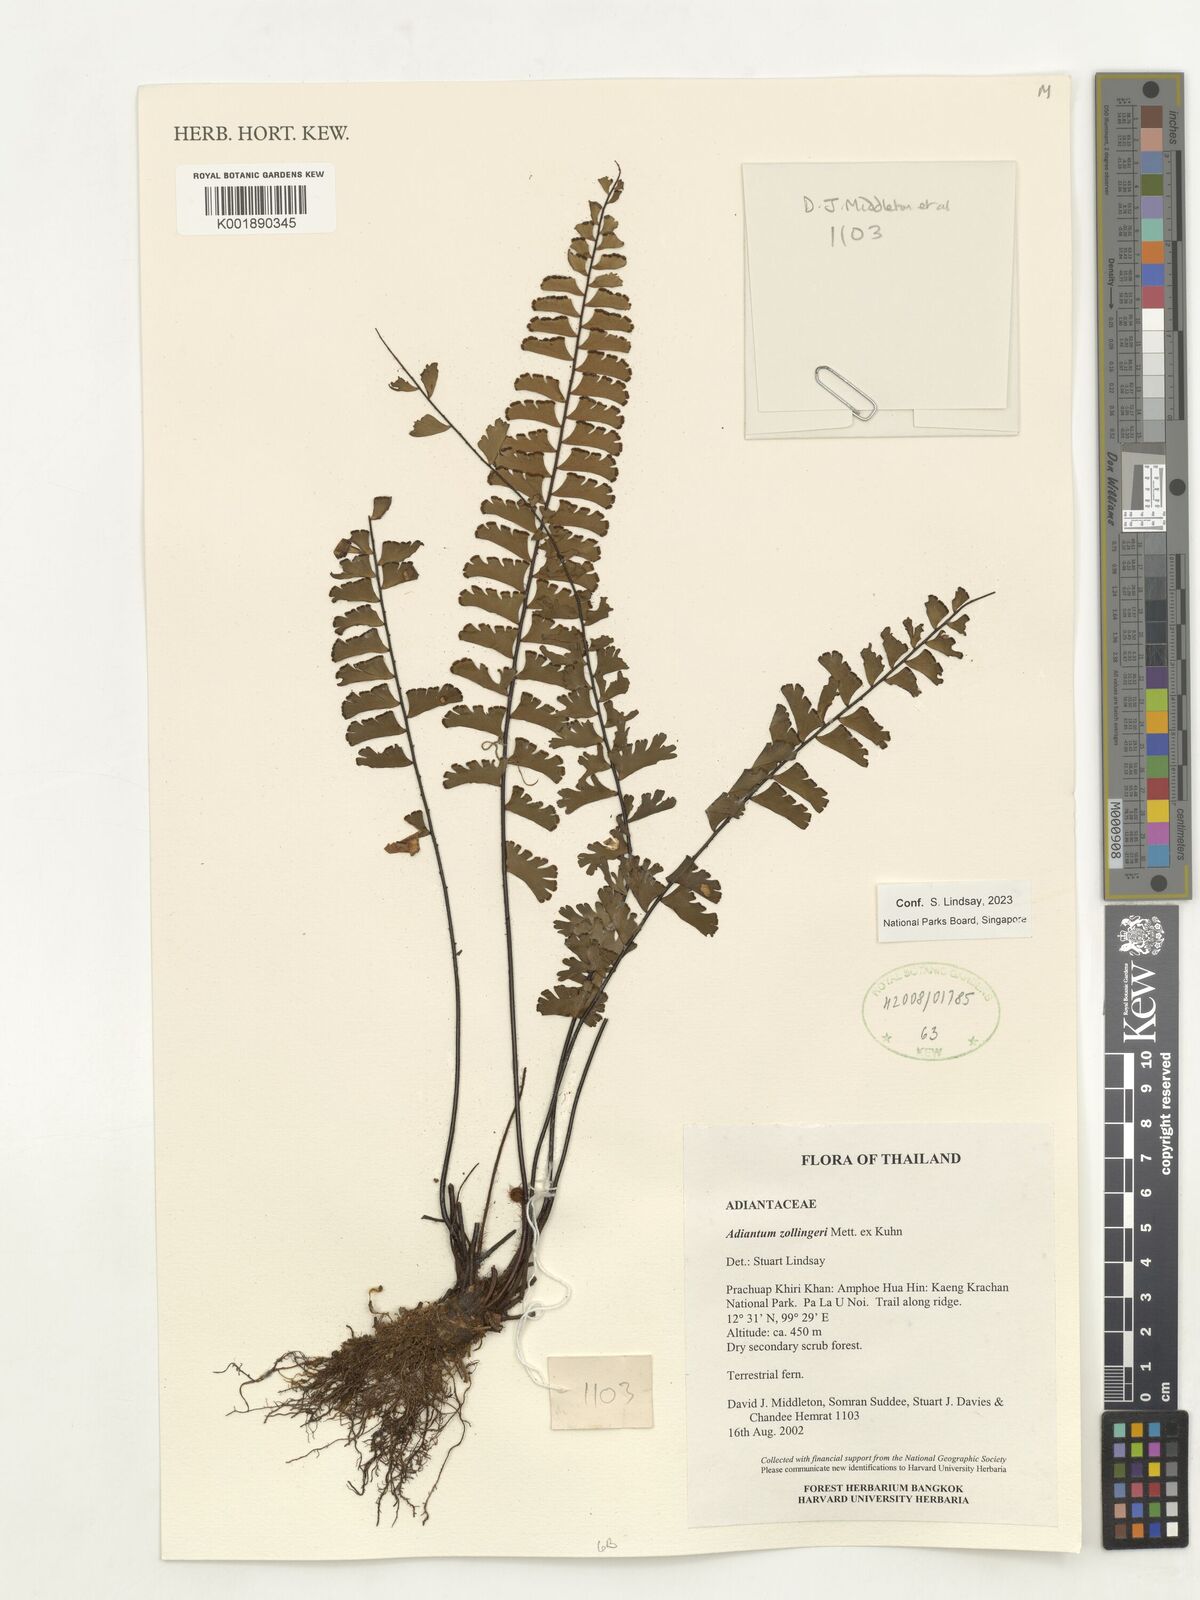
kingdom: Plantae
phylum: Tracheophyta
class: Polypodiopsida
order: Polypodiales
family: Pteridaceae
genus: Adiantum
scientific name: Adiantum zollingeri
